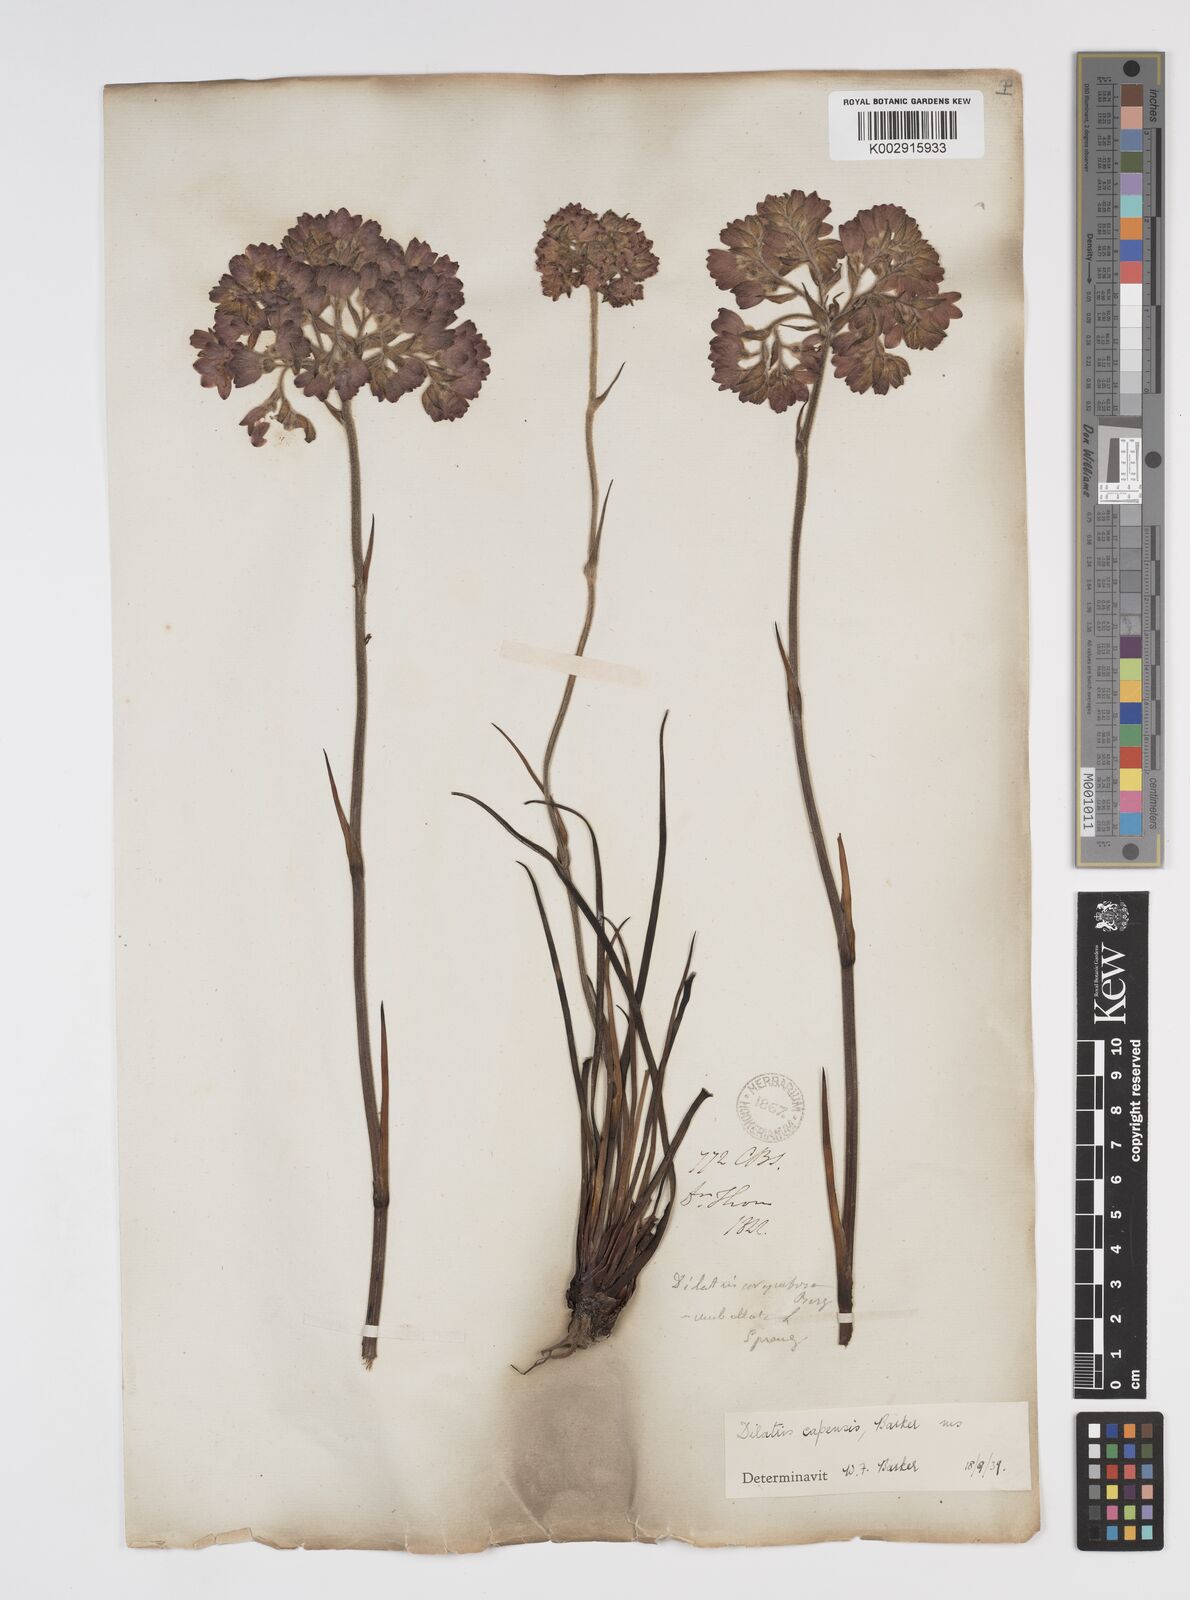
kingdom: Plantae
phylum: Tracheophyta
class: Liliopsida
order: Commelinales
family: Haemodoraceae
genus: Dilatris
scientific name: Dilatris pillansii
